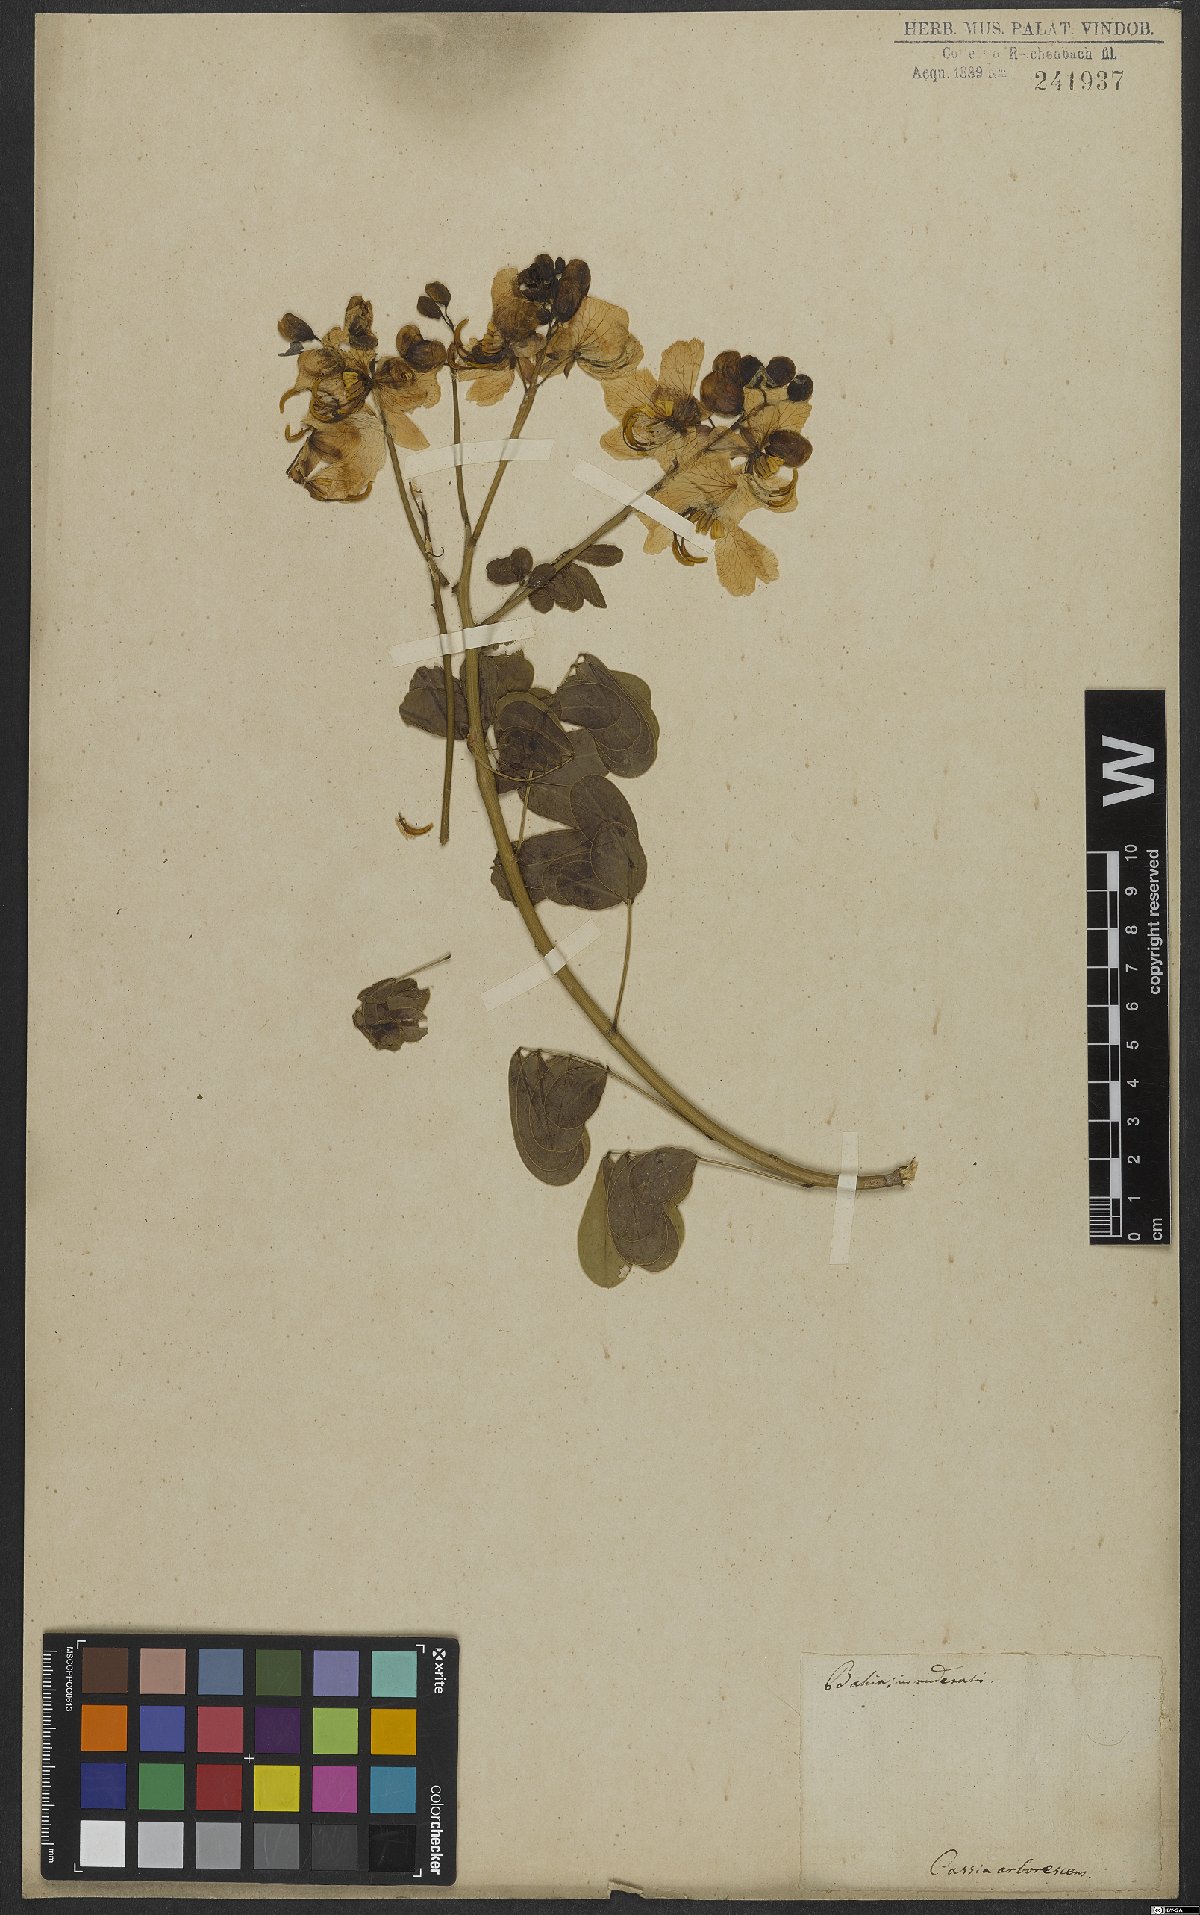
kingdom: Plantae
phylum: Tracheophyta
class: Magnoliopsida
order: Fabales
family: Fabaceae
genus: Senna
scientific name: Senna sulfurea
